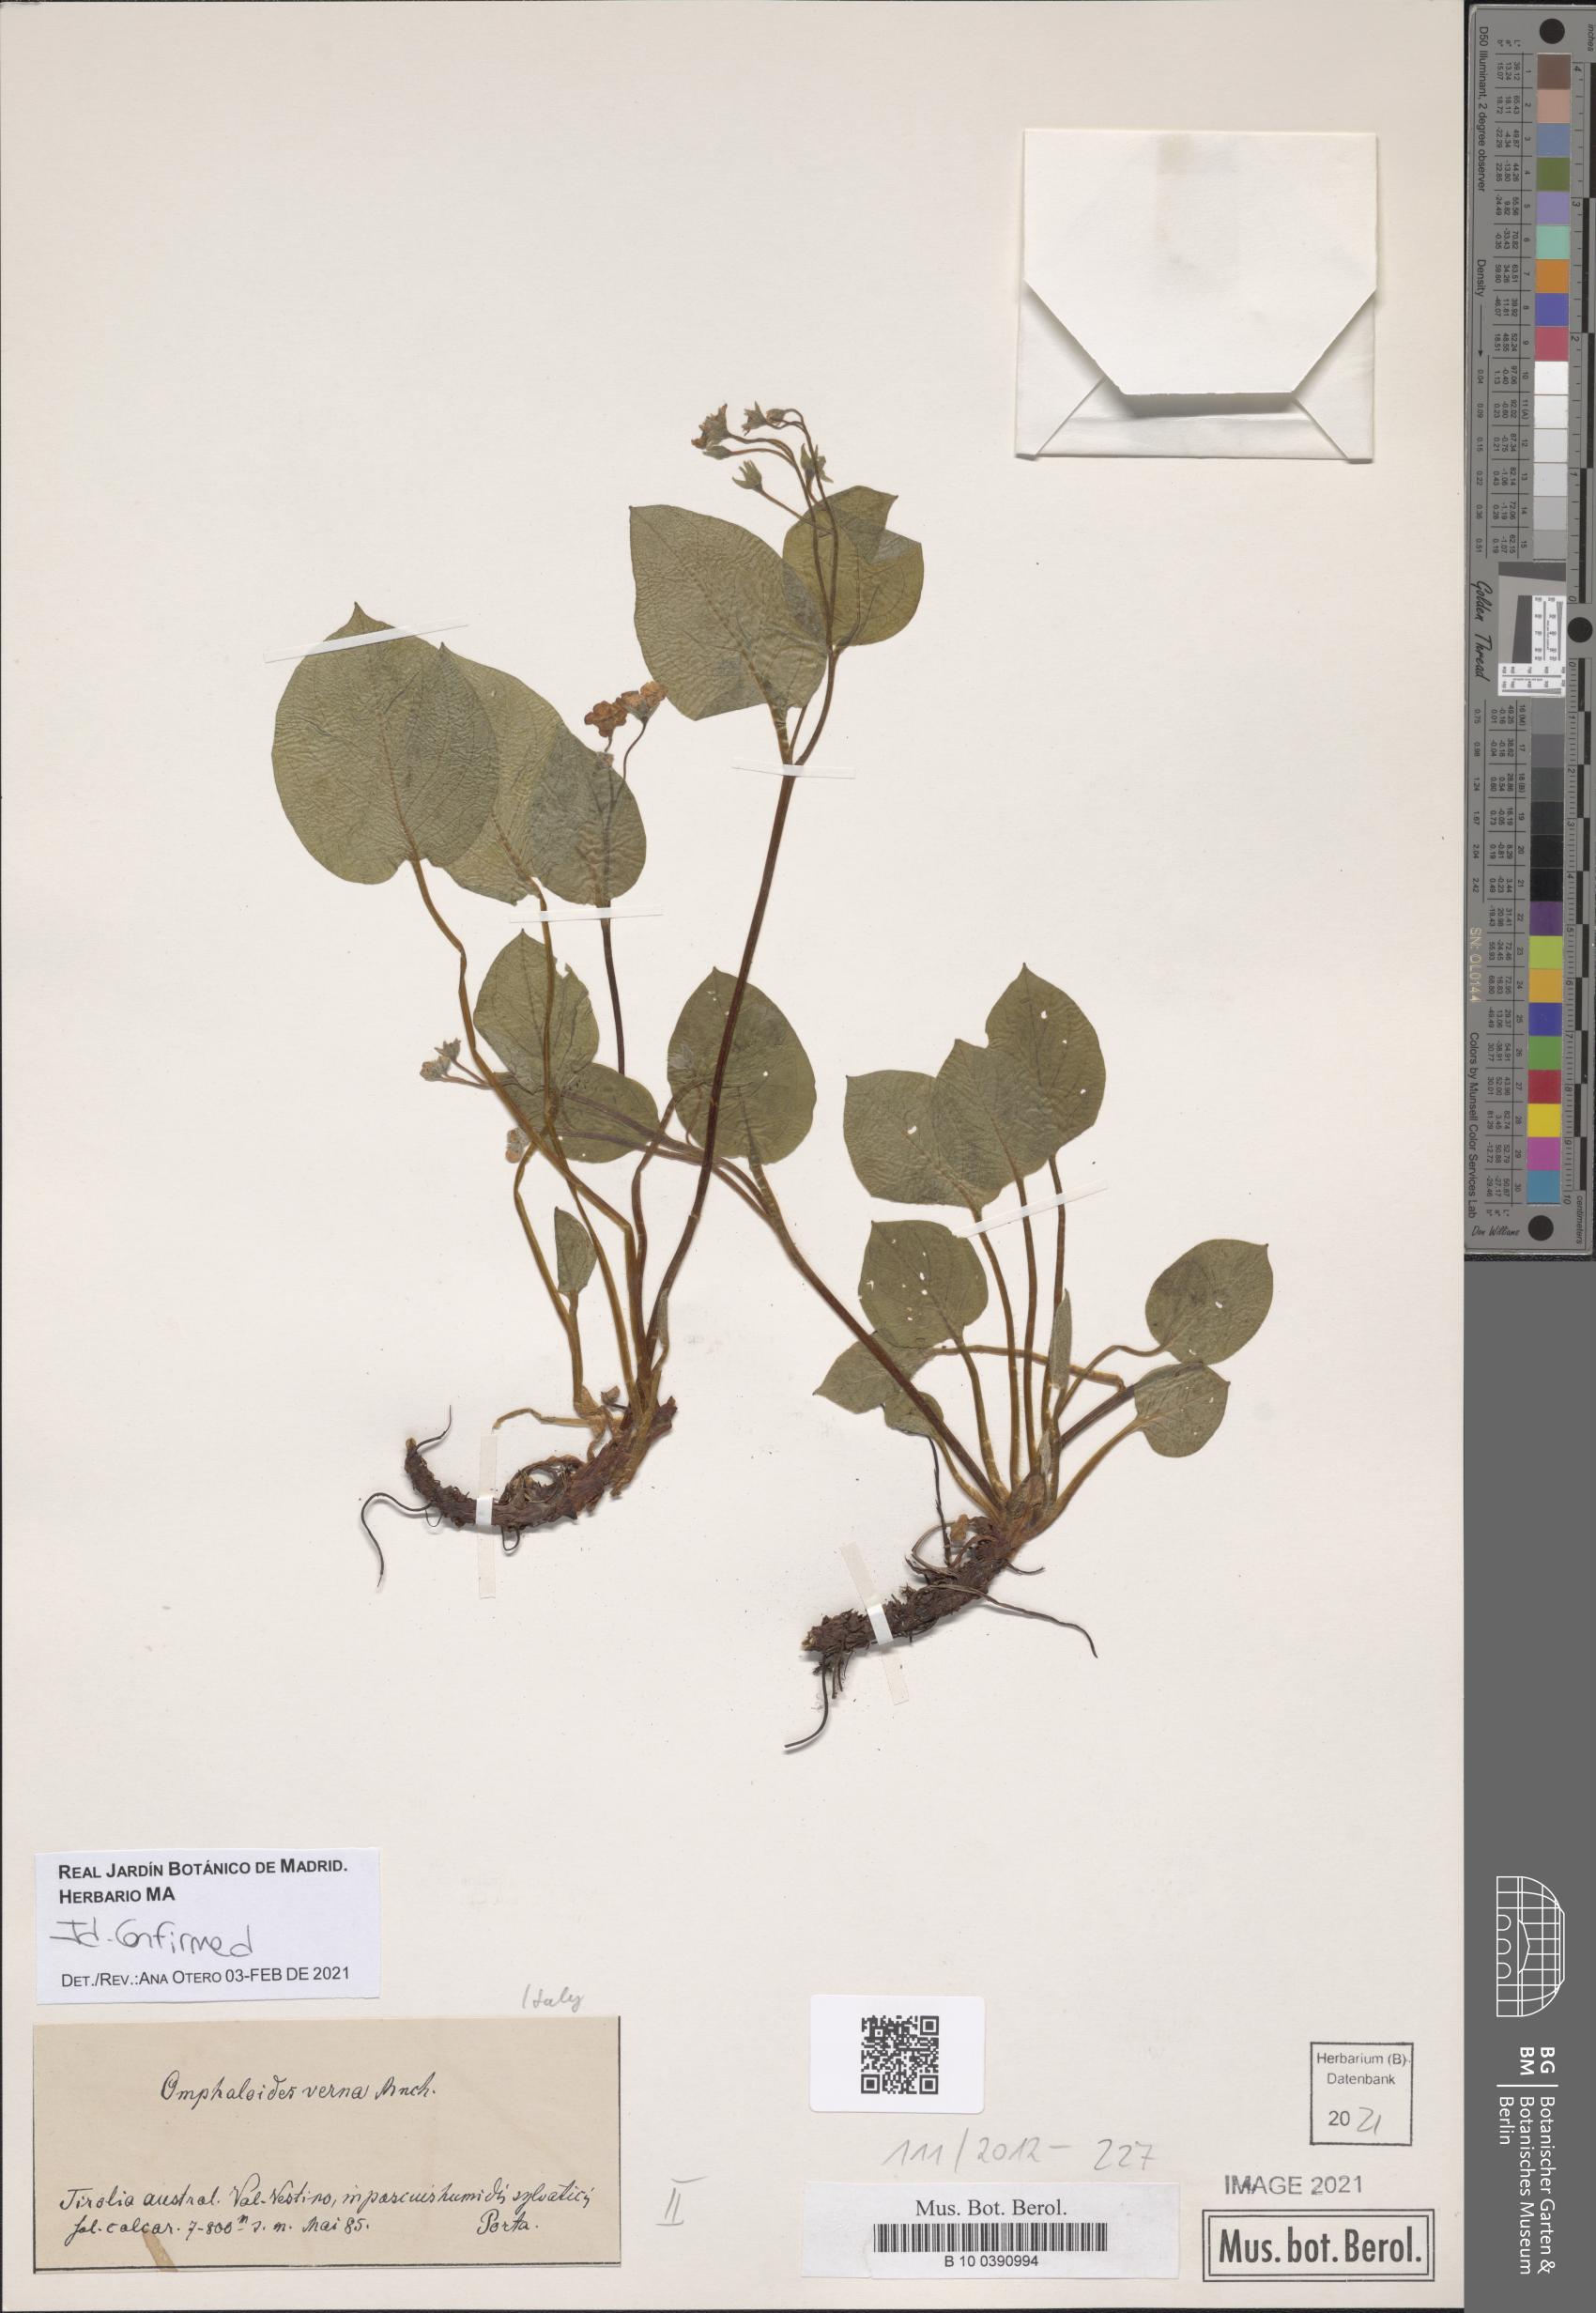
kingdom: Plantae
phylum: Tracheophyta
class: Magnoliopsida
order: Boraginales
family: Boraginaceae
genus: Omphalodes
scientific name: Omphalodes verna
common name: Blue-eyed-mary
